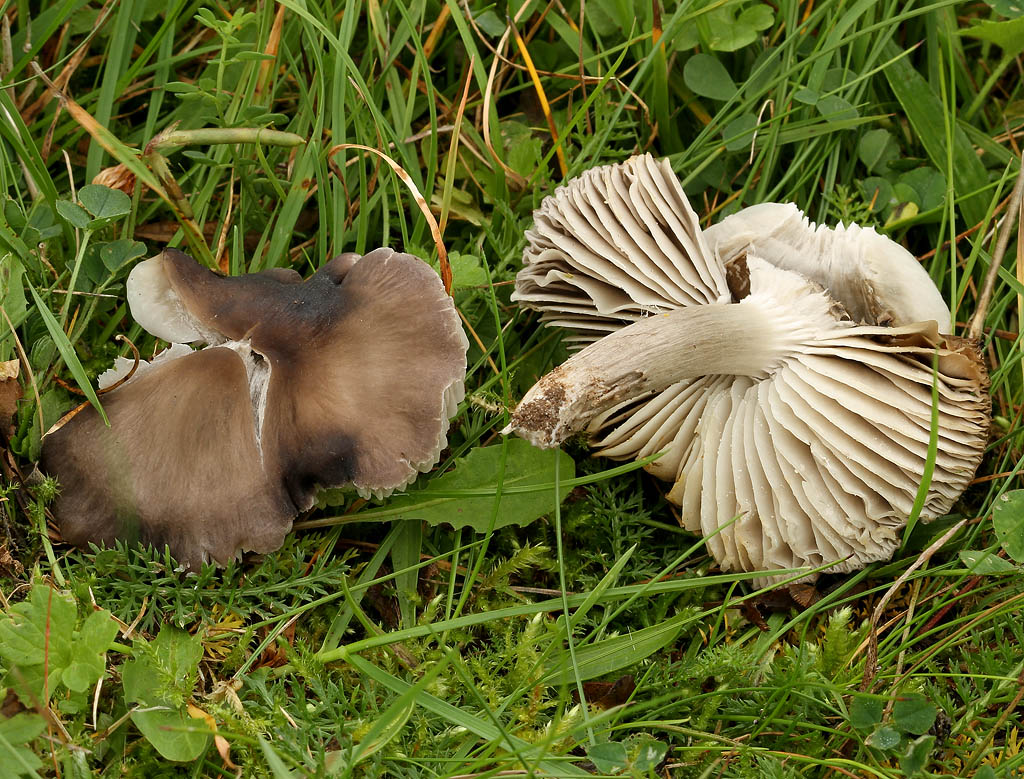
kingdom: Fungi
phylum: Basidiomycota
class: Agaricomycetes
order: Agaricales
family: Tricholomataceae
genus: Dermoloma
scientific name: Dermoloma cuneifolium
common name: eng-nonnehat
